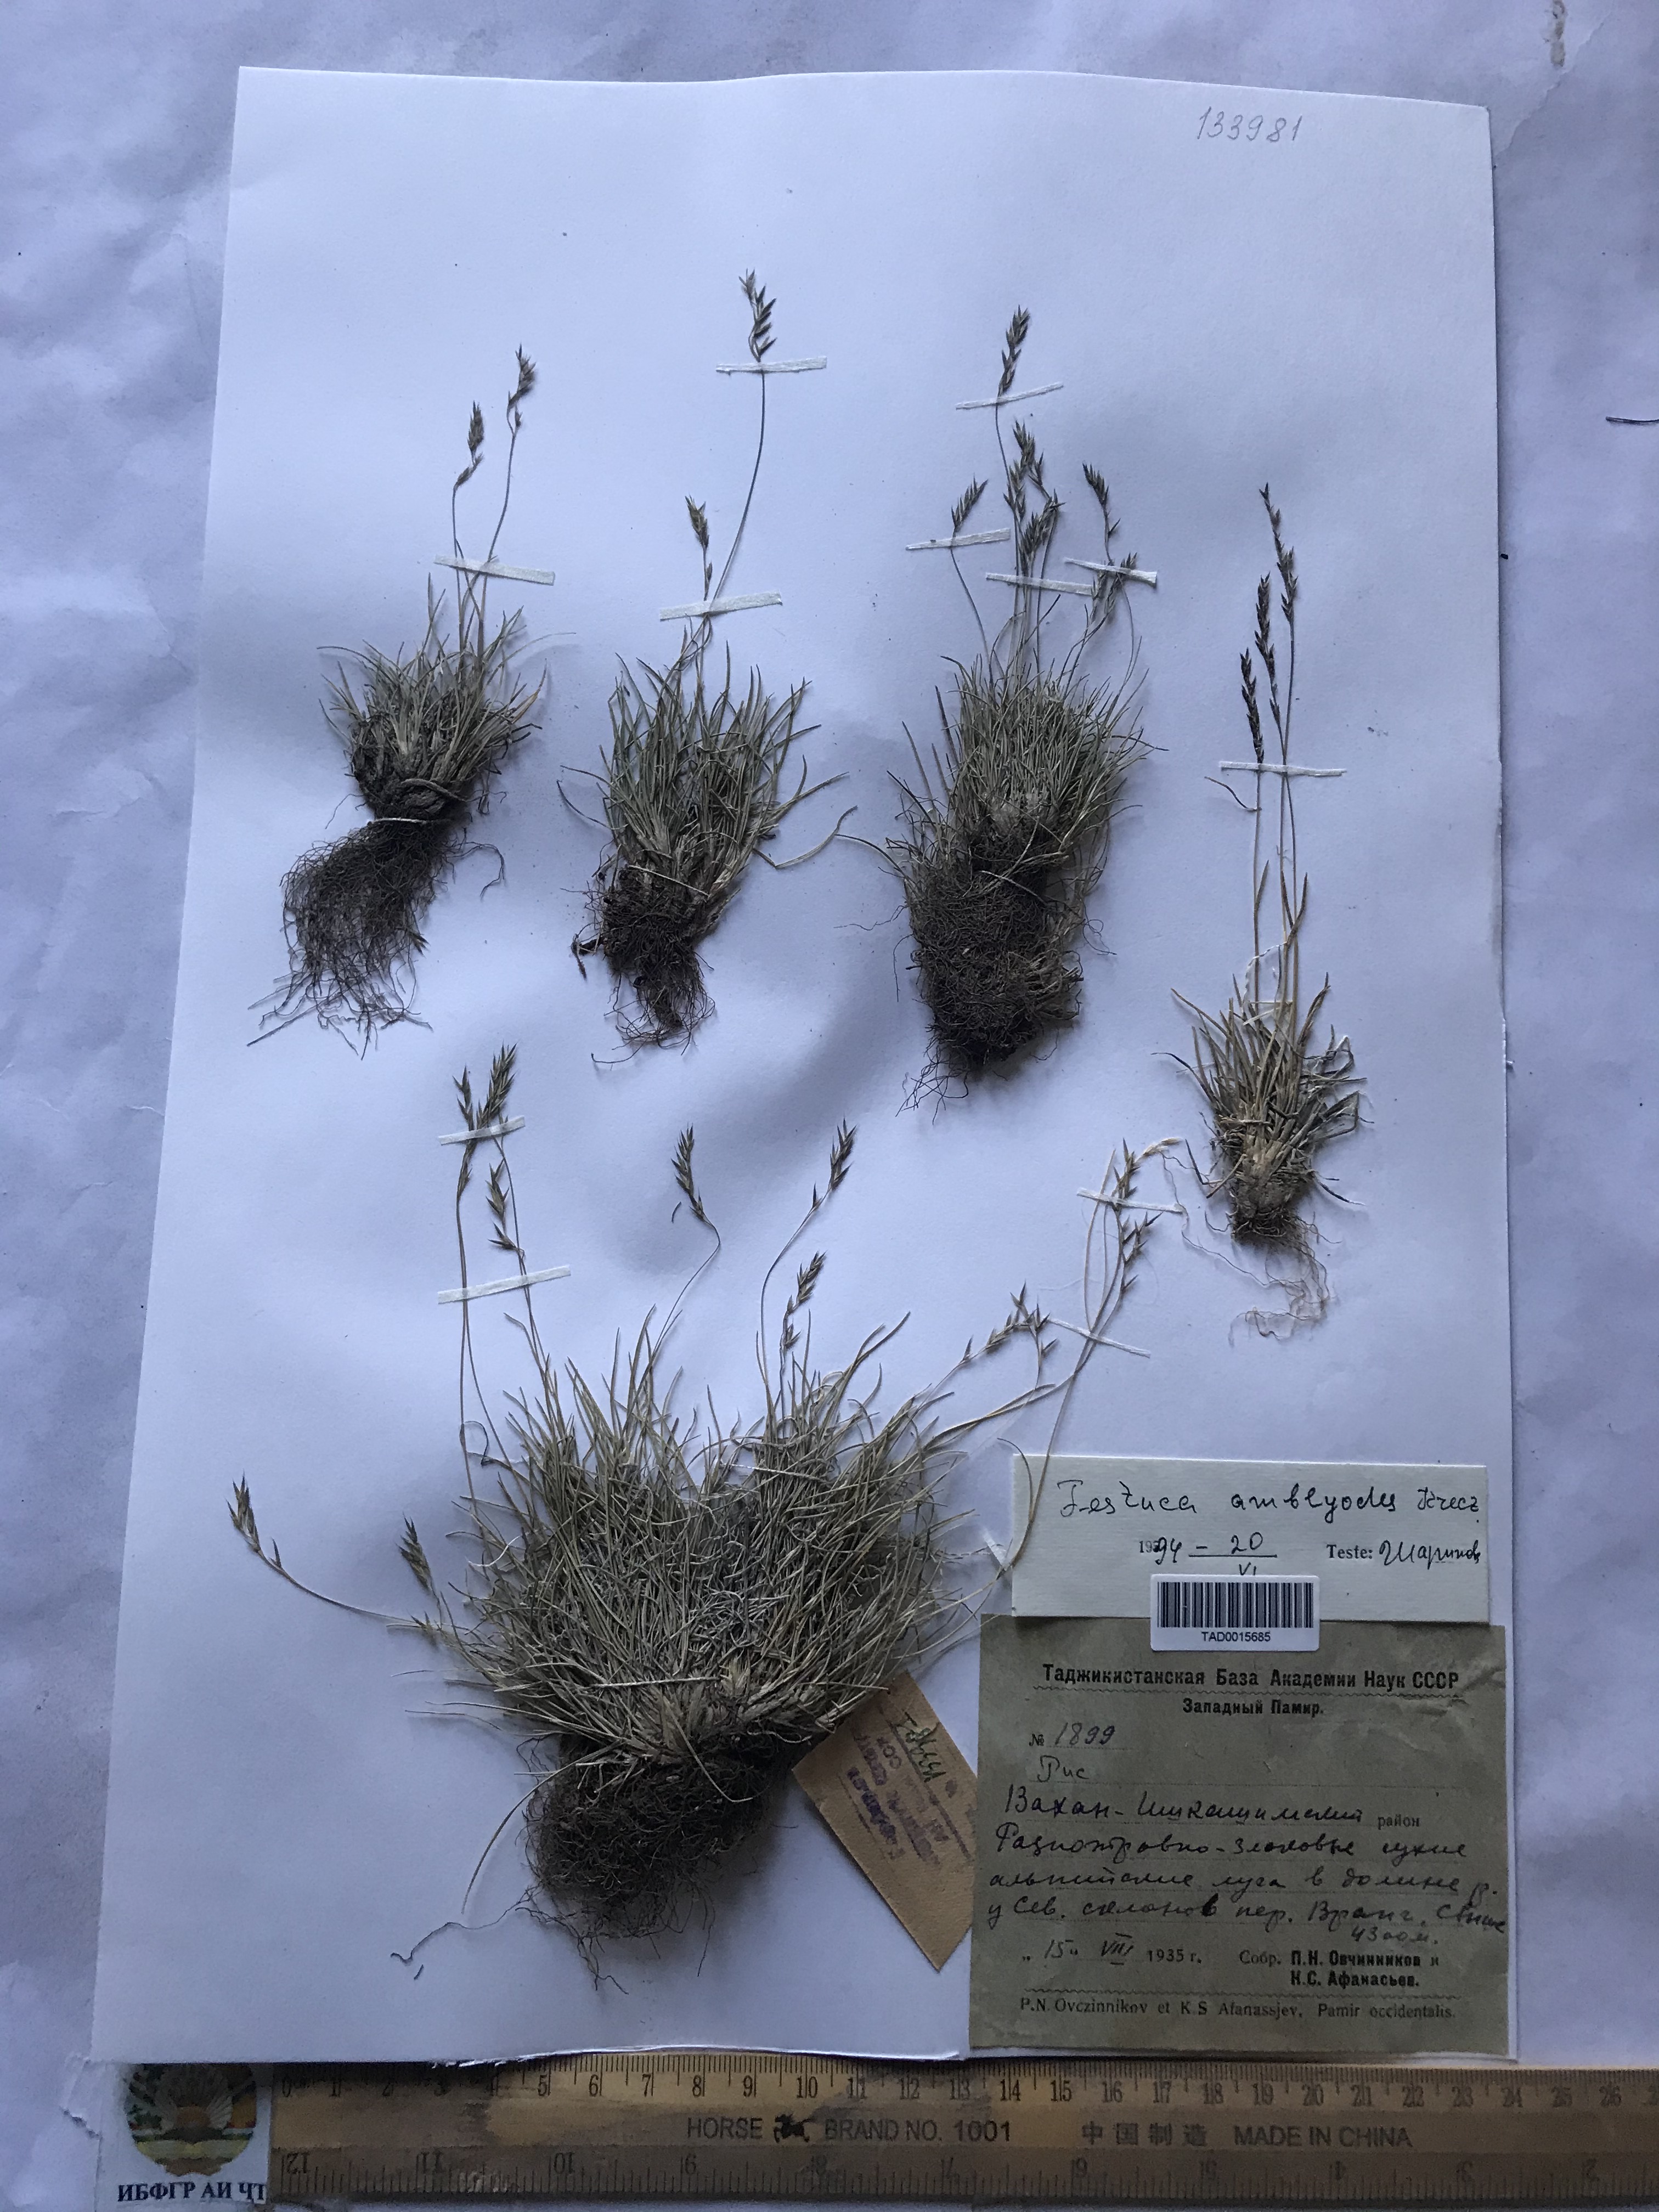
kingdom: Plantae
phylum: Tracheophyta
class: Liliopsida
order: Poales
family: Poaceae
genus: Festuca
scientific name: Festuca amblyodes
